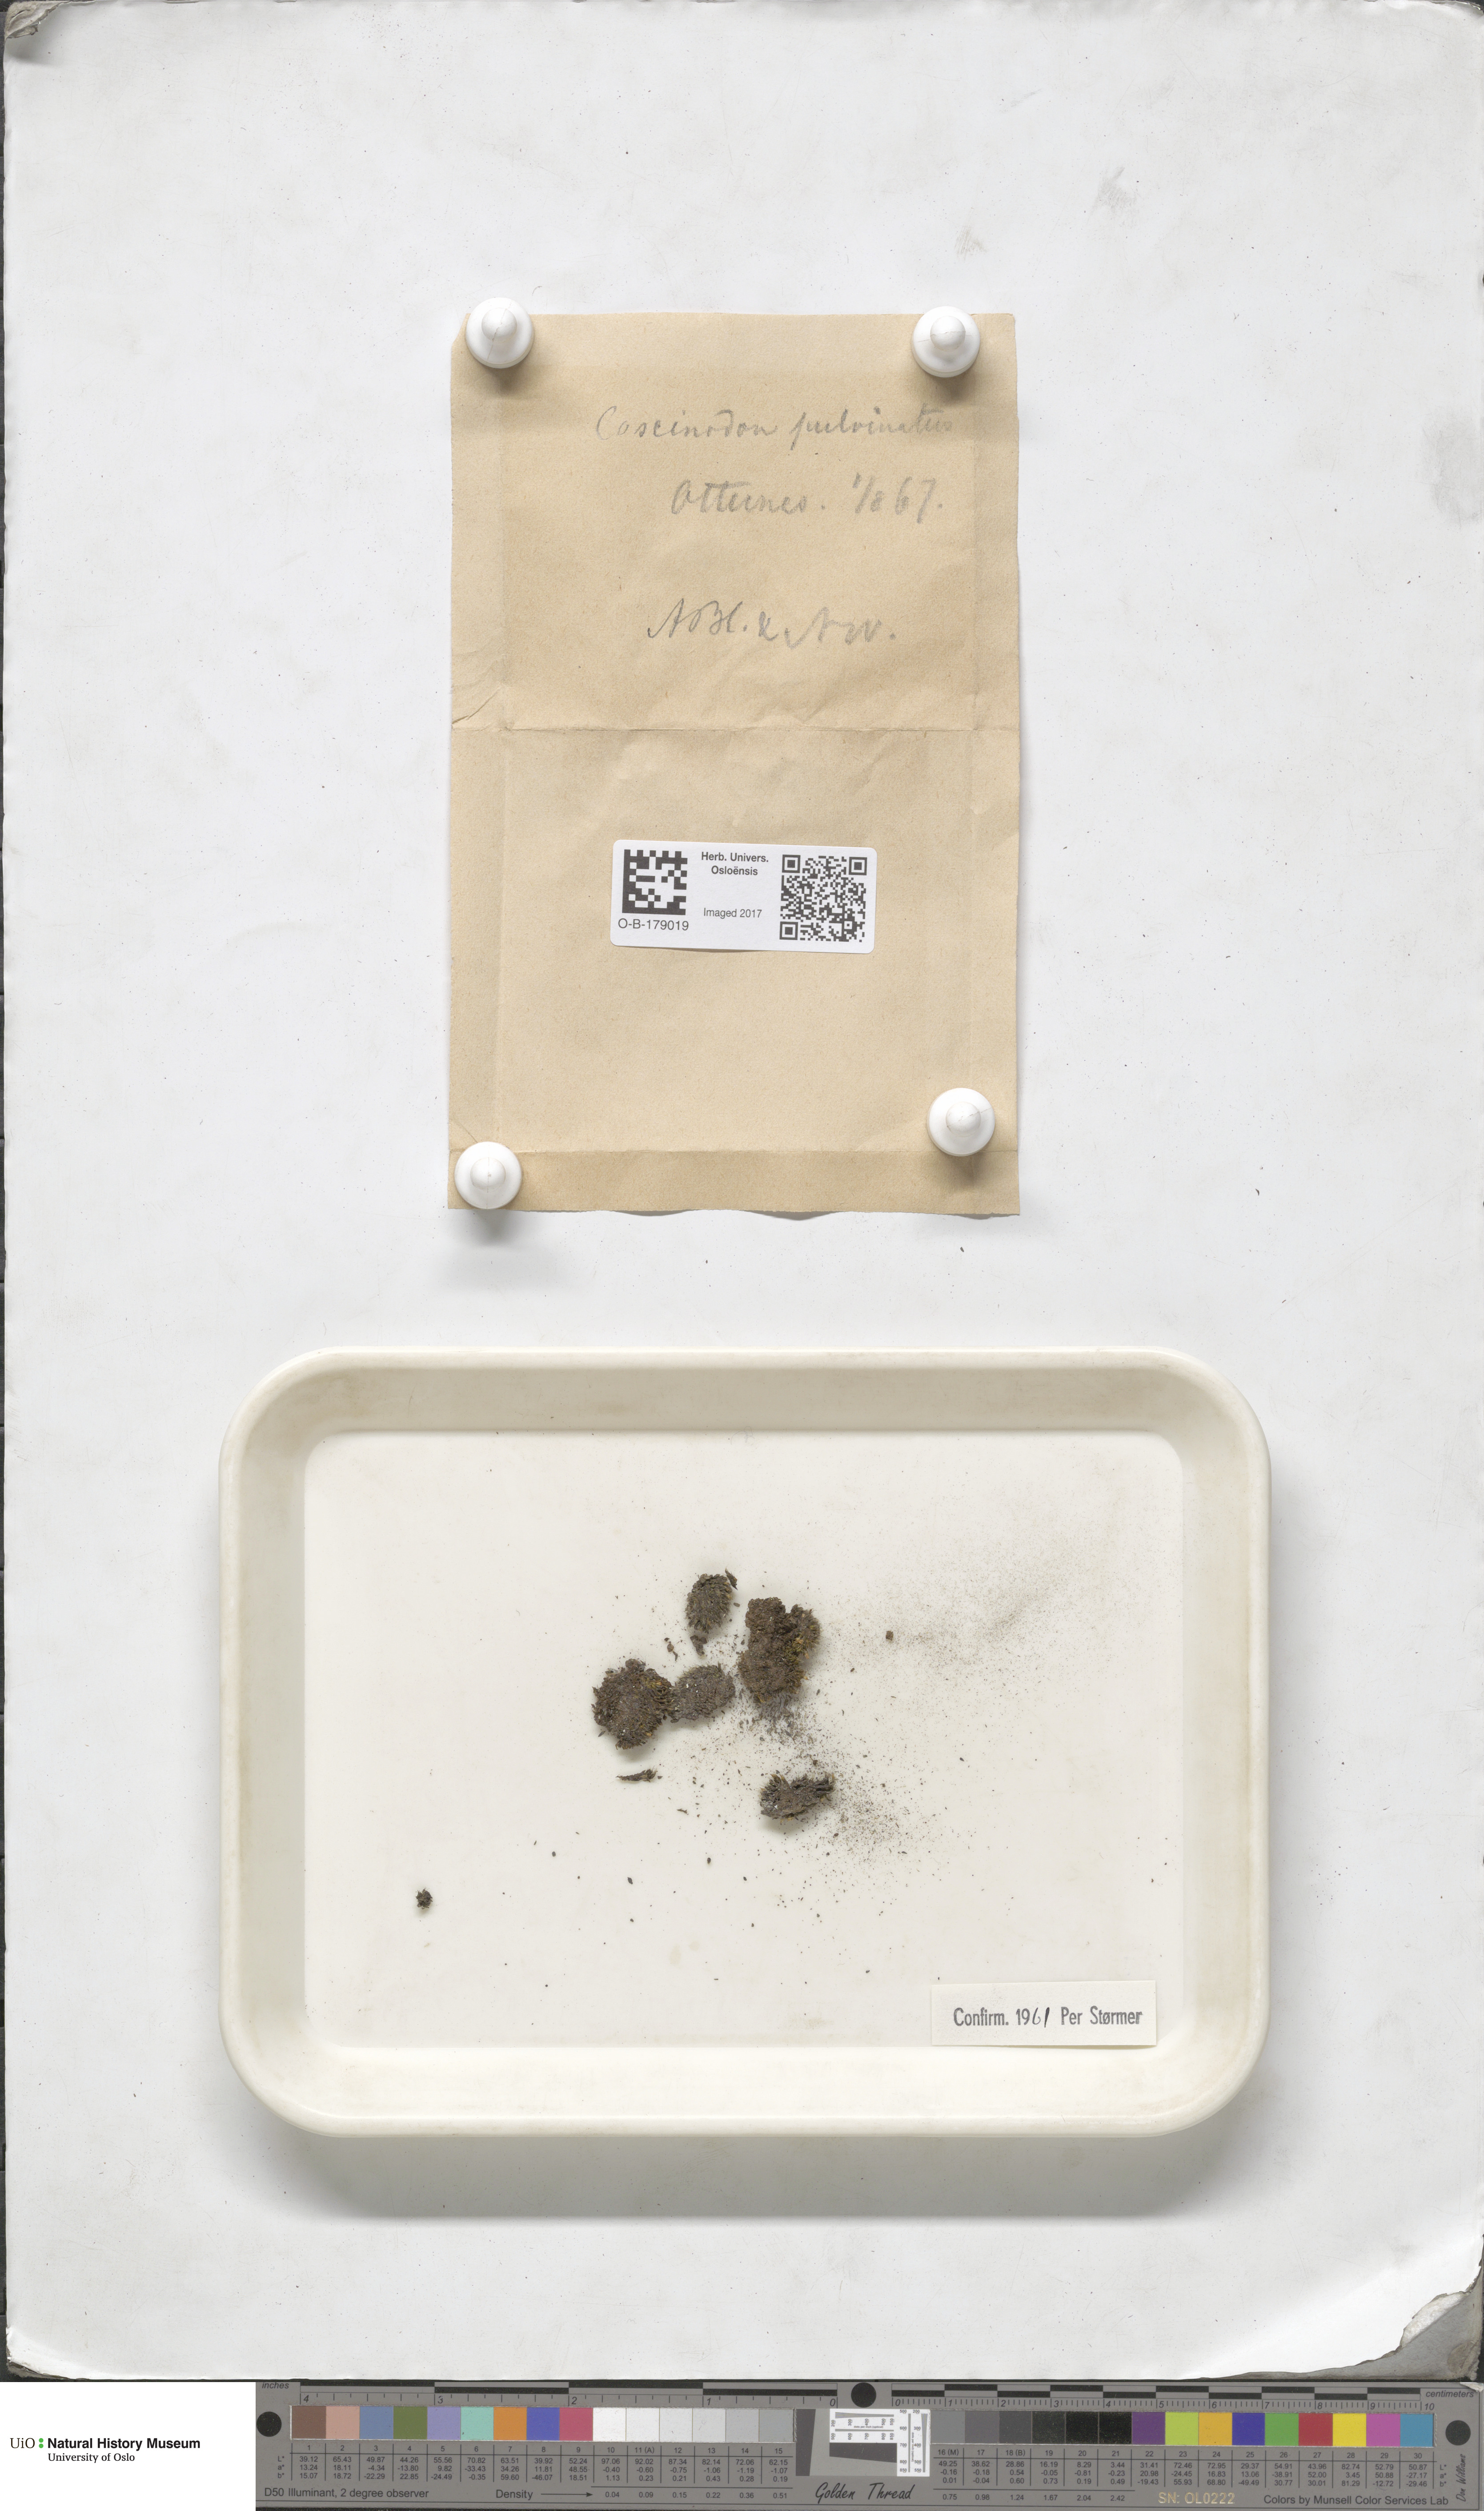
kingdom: Plantae
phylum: Bryophyta
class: Bryopsida
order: Bartramiales
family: Bartramiaceae
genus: Conostomum
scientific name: Conostomum tetragonum
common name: Helmet moss
